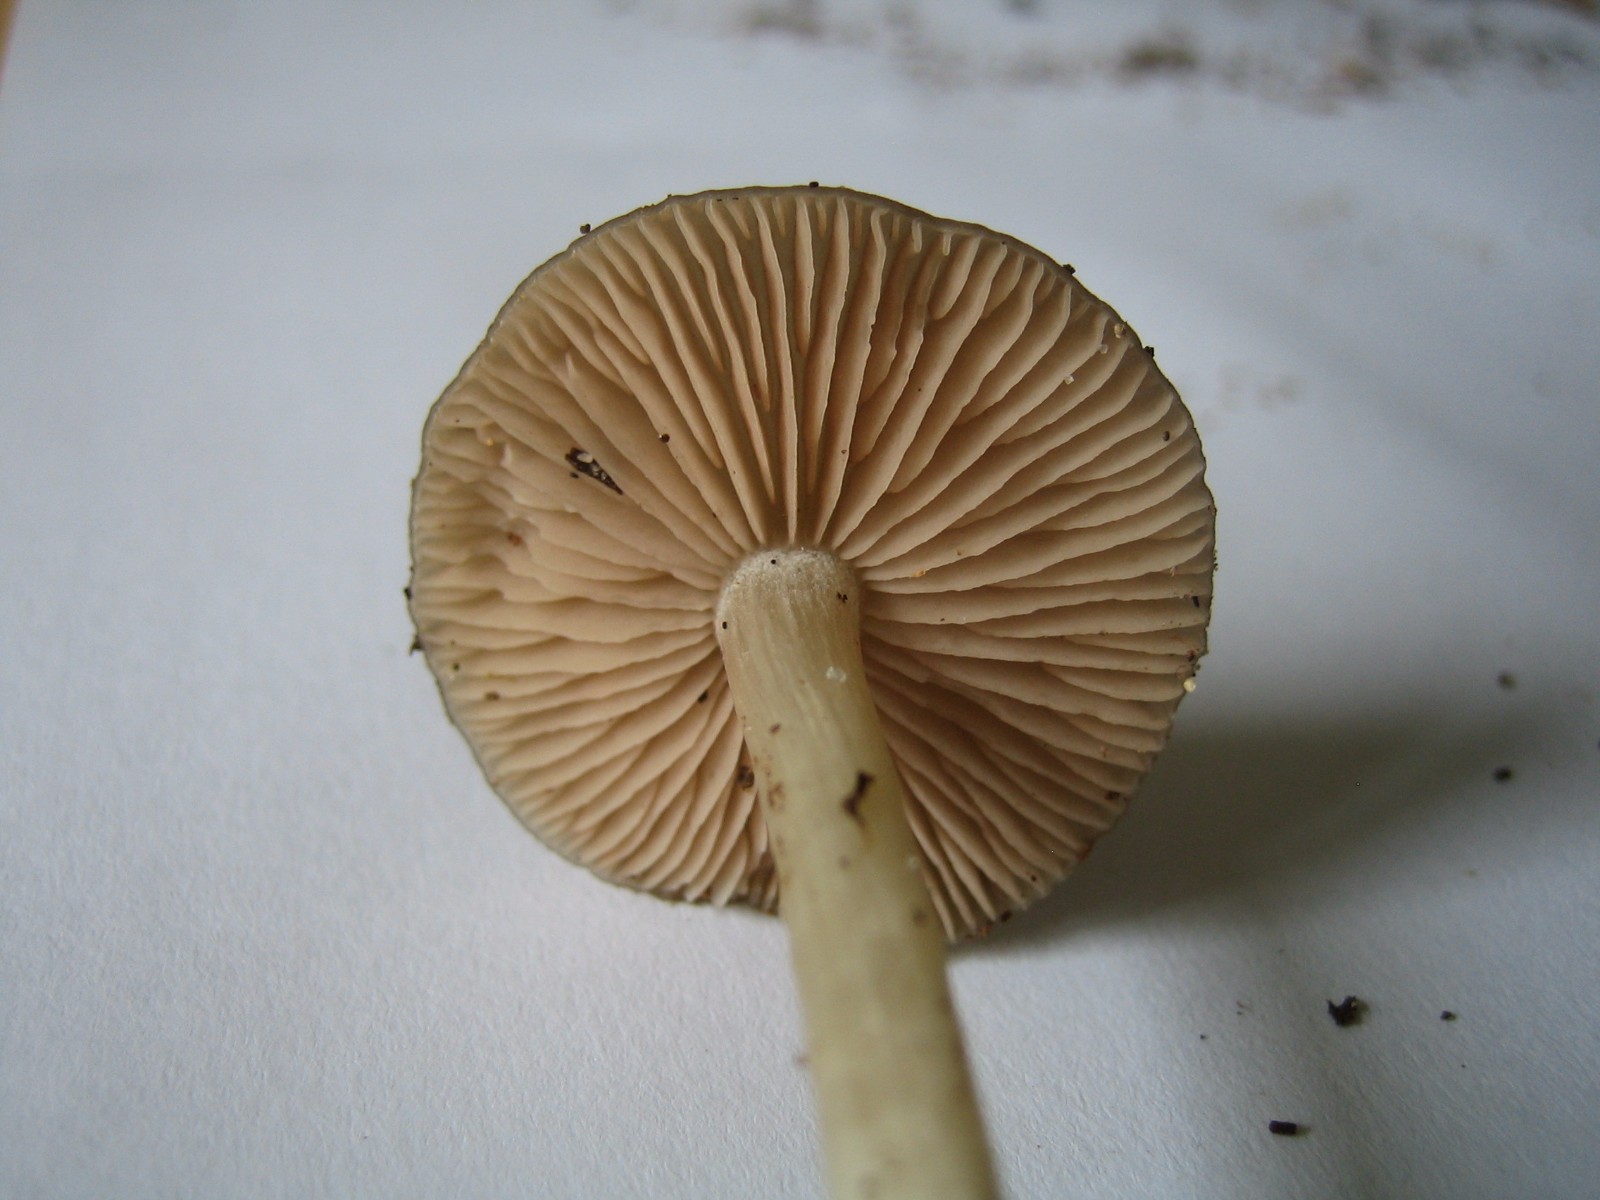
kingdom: Fungi
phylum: Basidiomycota
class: Agaricomycetes
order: Agaricales
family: Entolomataceae
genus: Entoloma
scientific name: Entoloma
